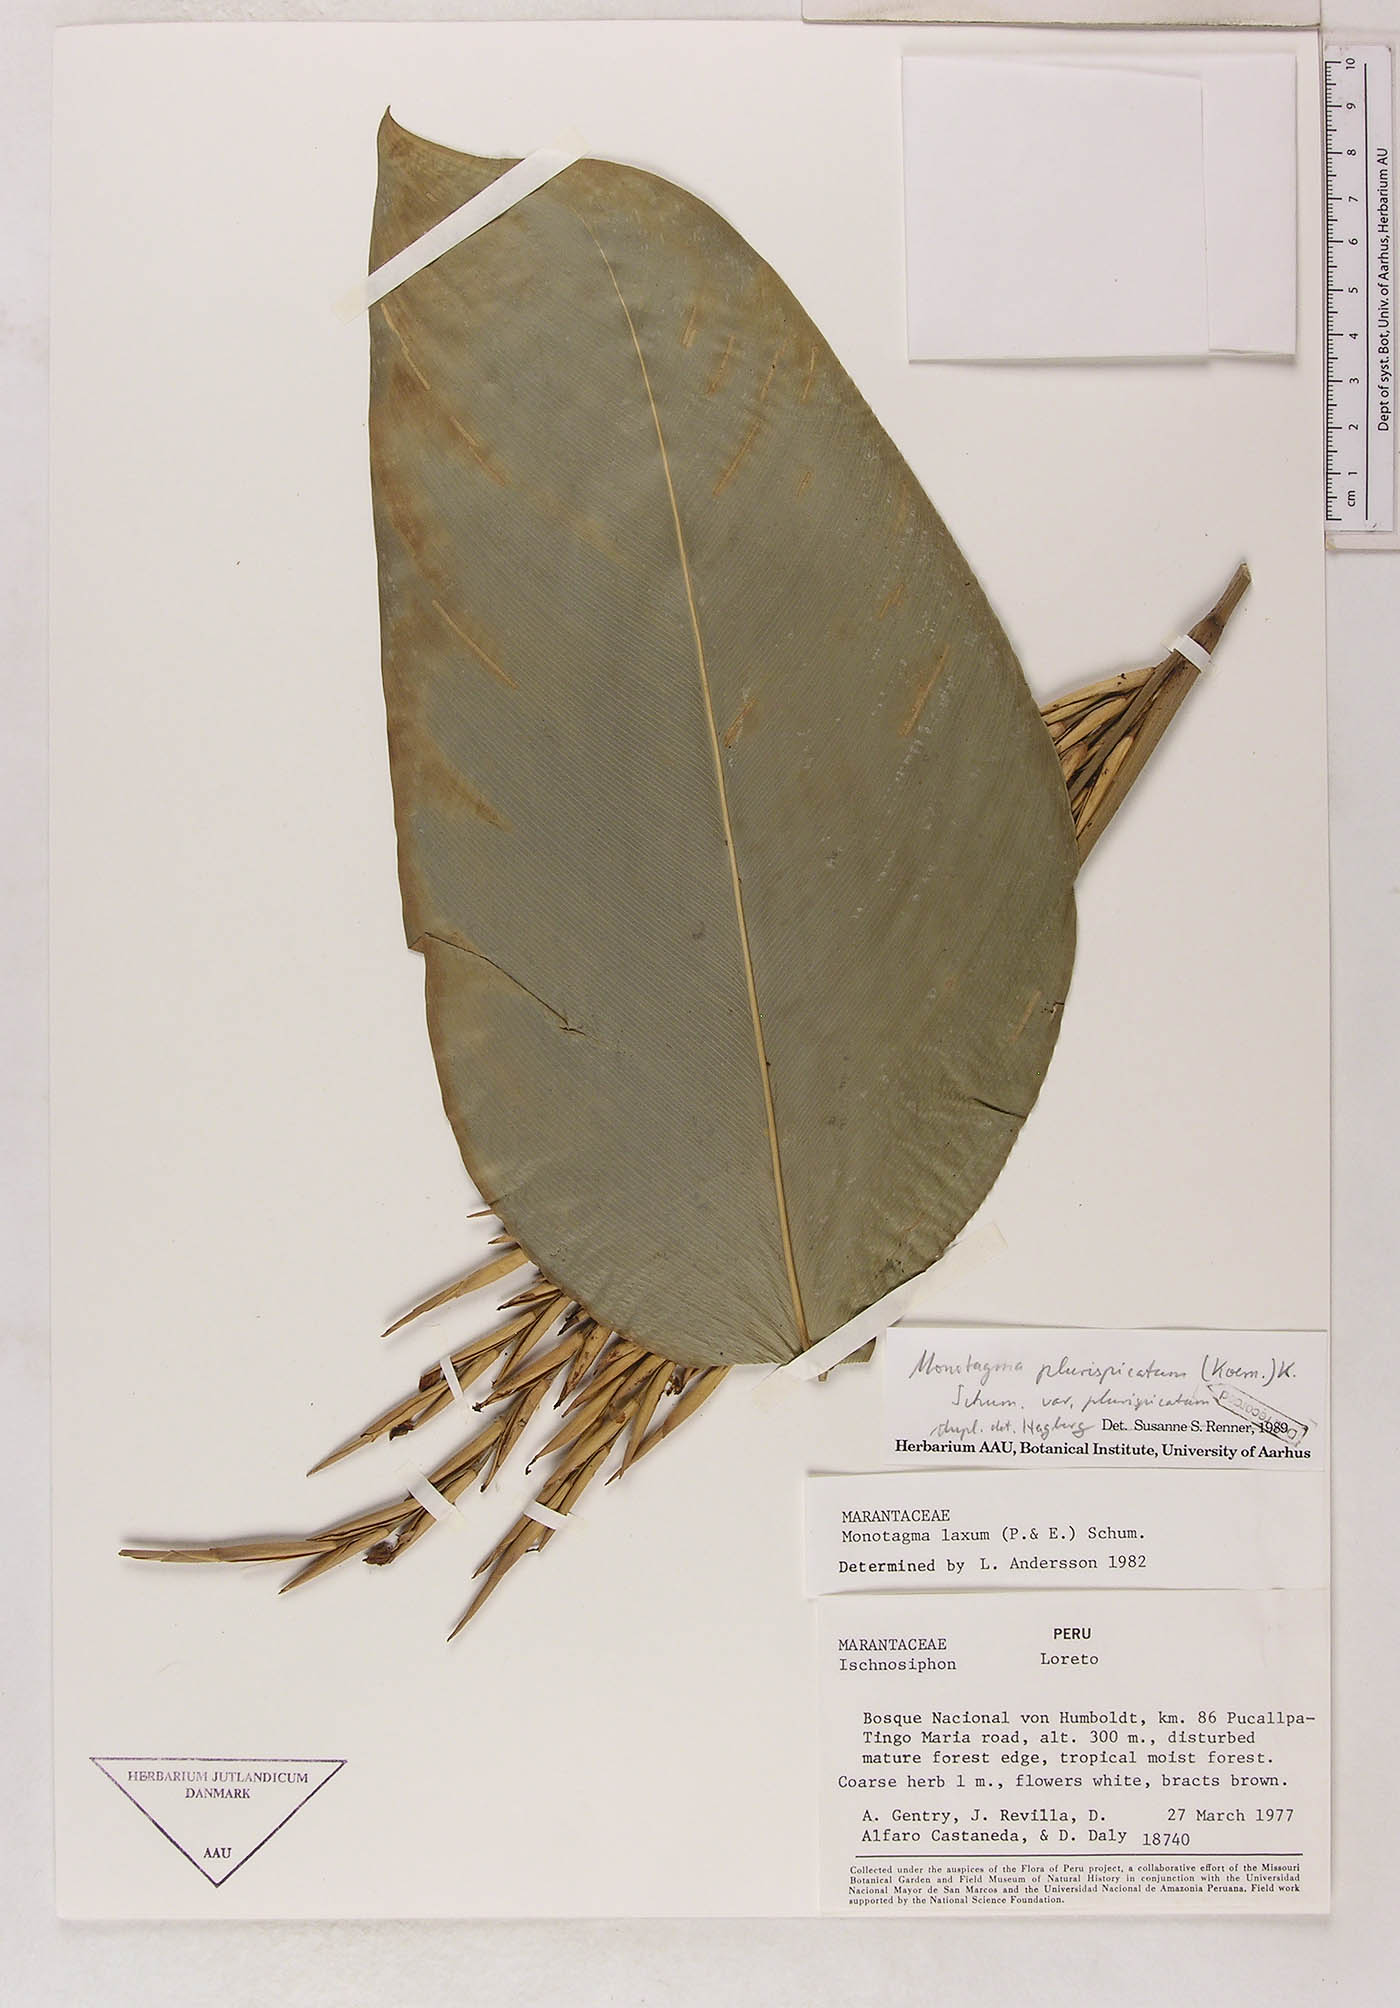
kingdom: Plantae
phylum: Tracheophyta
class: Liliopsida
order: Zingiberales
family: Marantaceae
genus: Monotagma
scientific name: Monotagma plurispicatum
